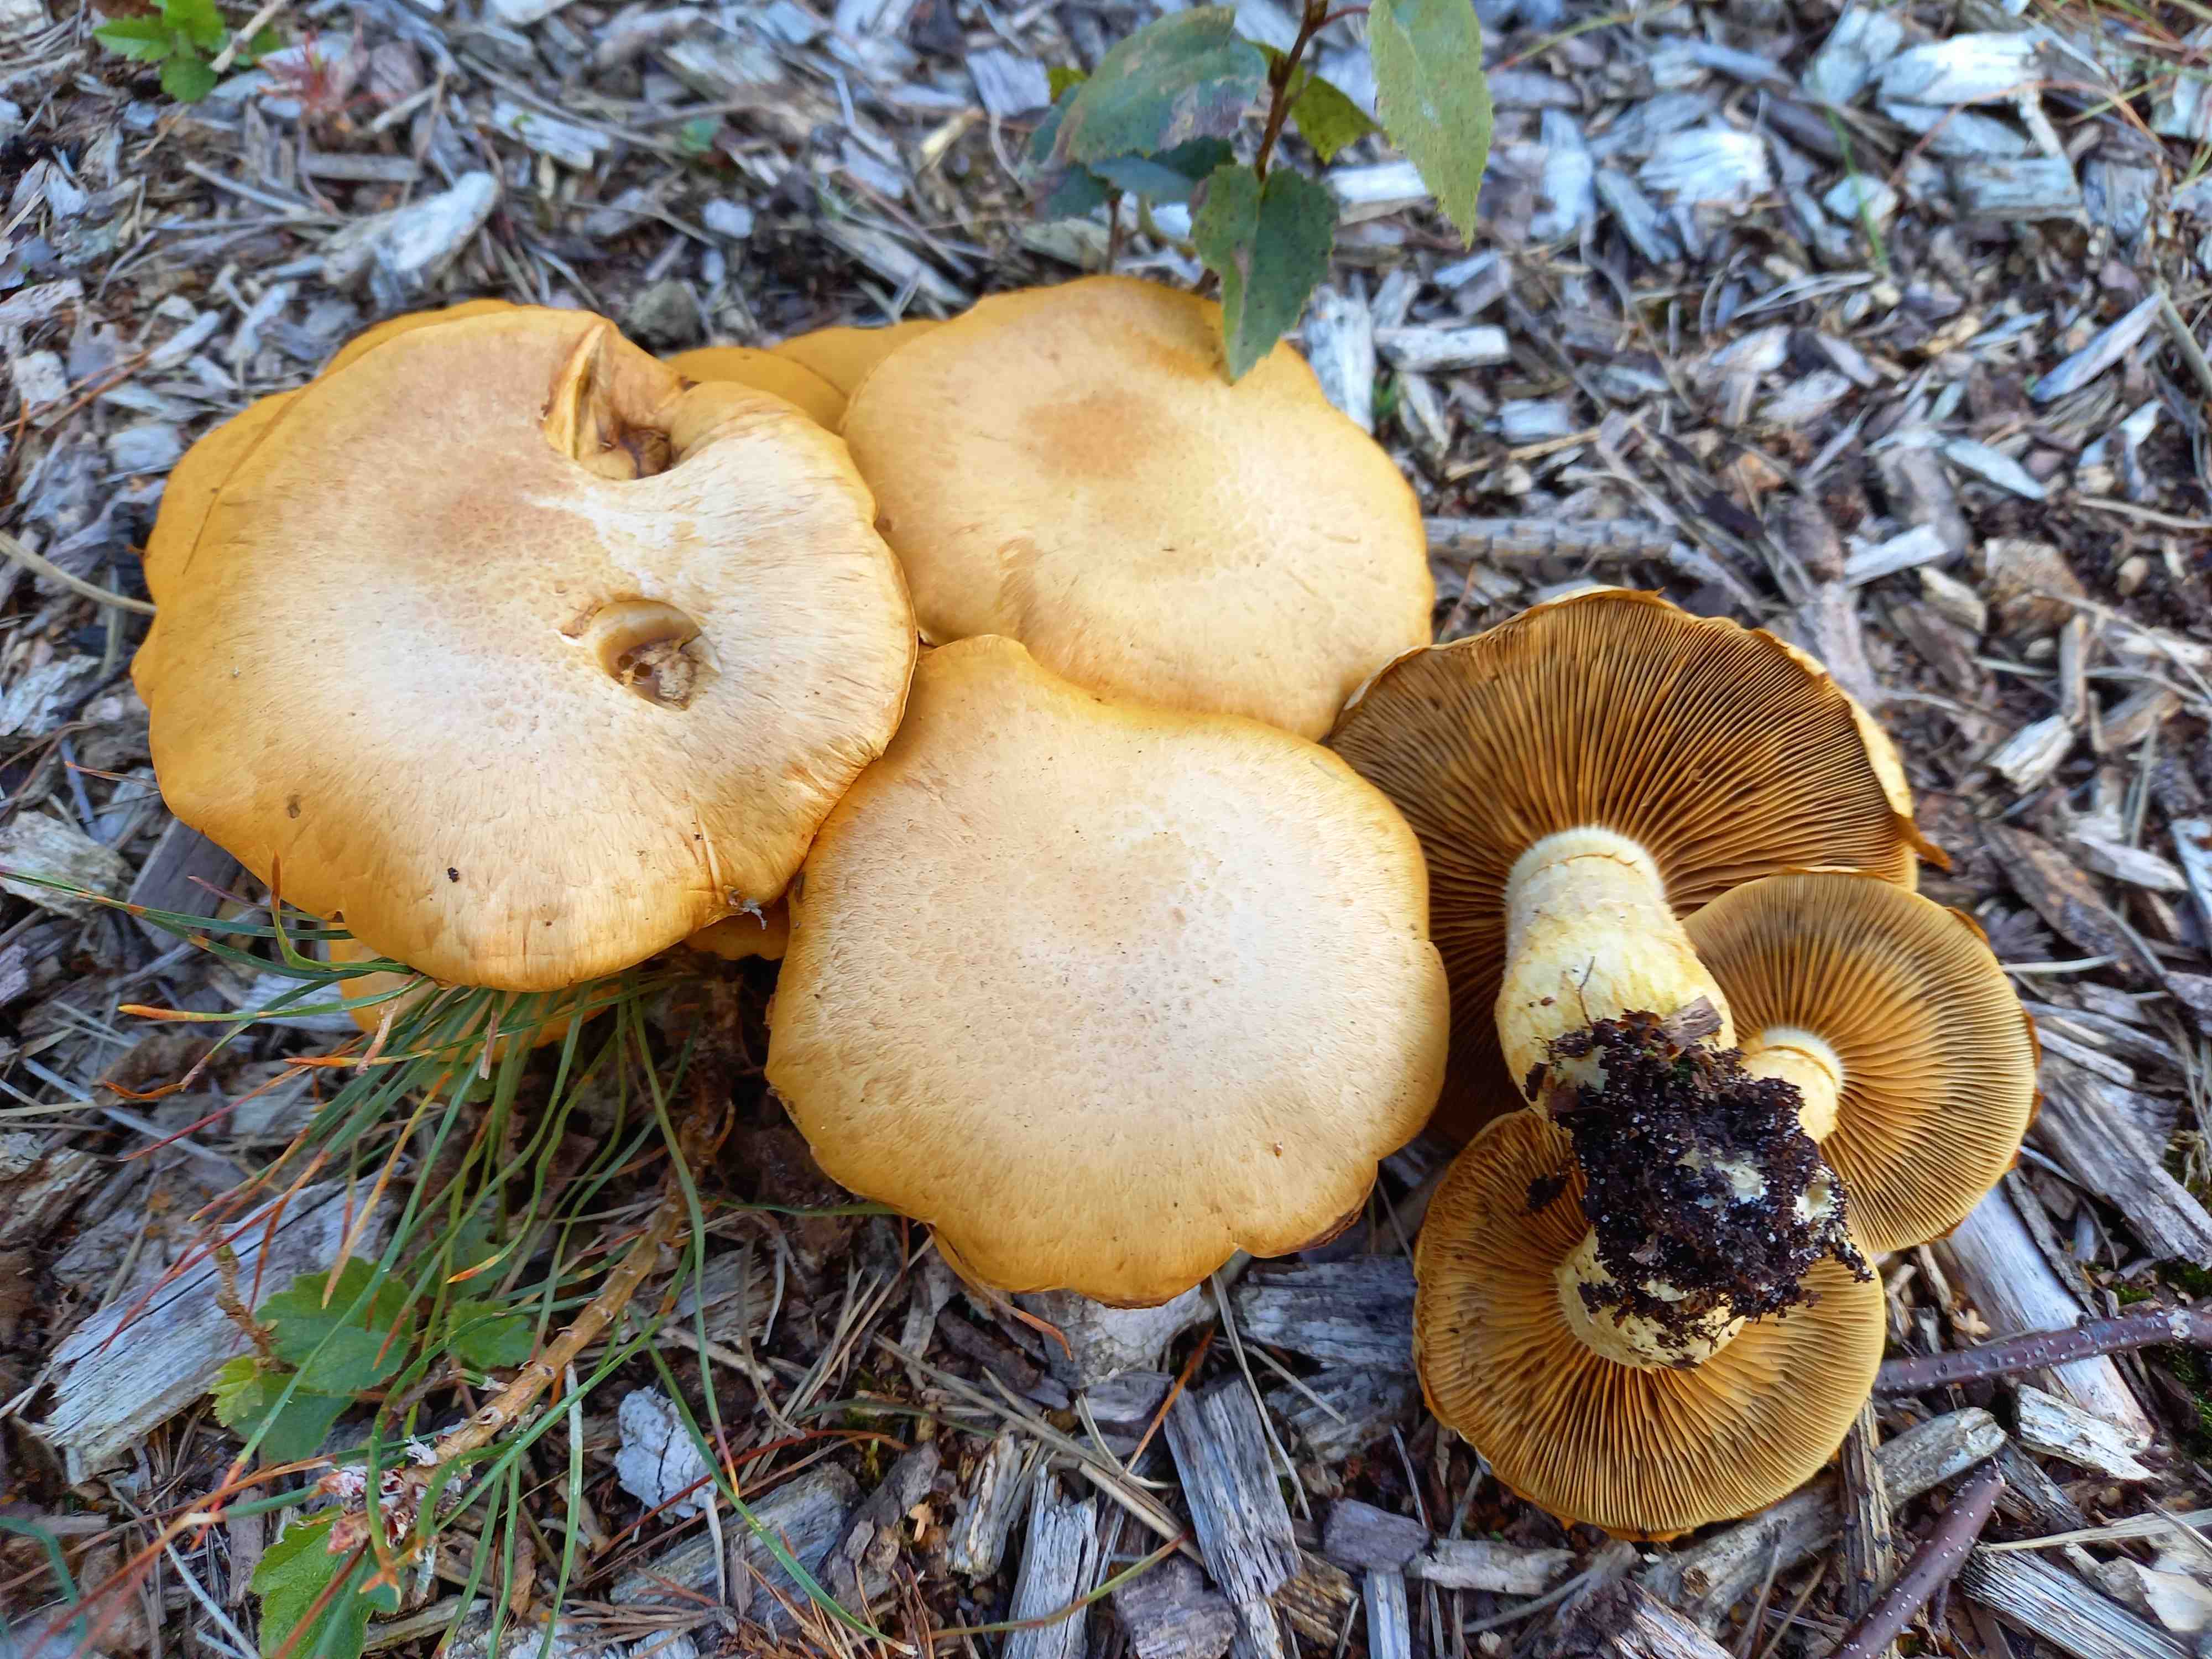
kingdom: Fungi
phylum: Basidiomycota
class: Agaricomycetes
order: Agaricales
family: Hymenogastraceae
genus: Gymnopilus
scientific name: Gymnopilus spectabilis
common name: fibret flammehat
